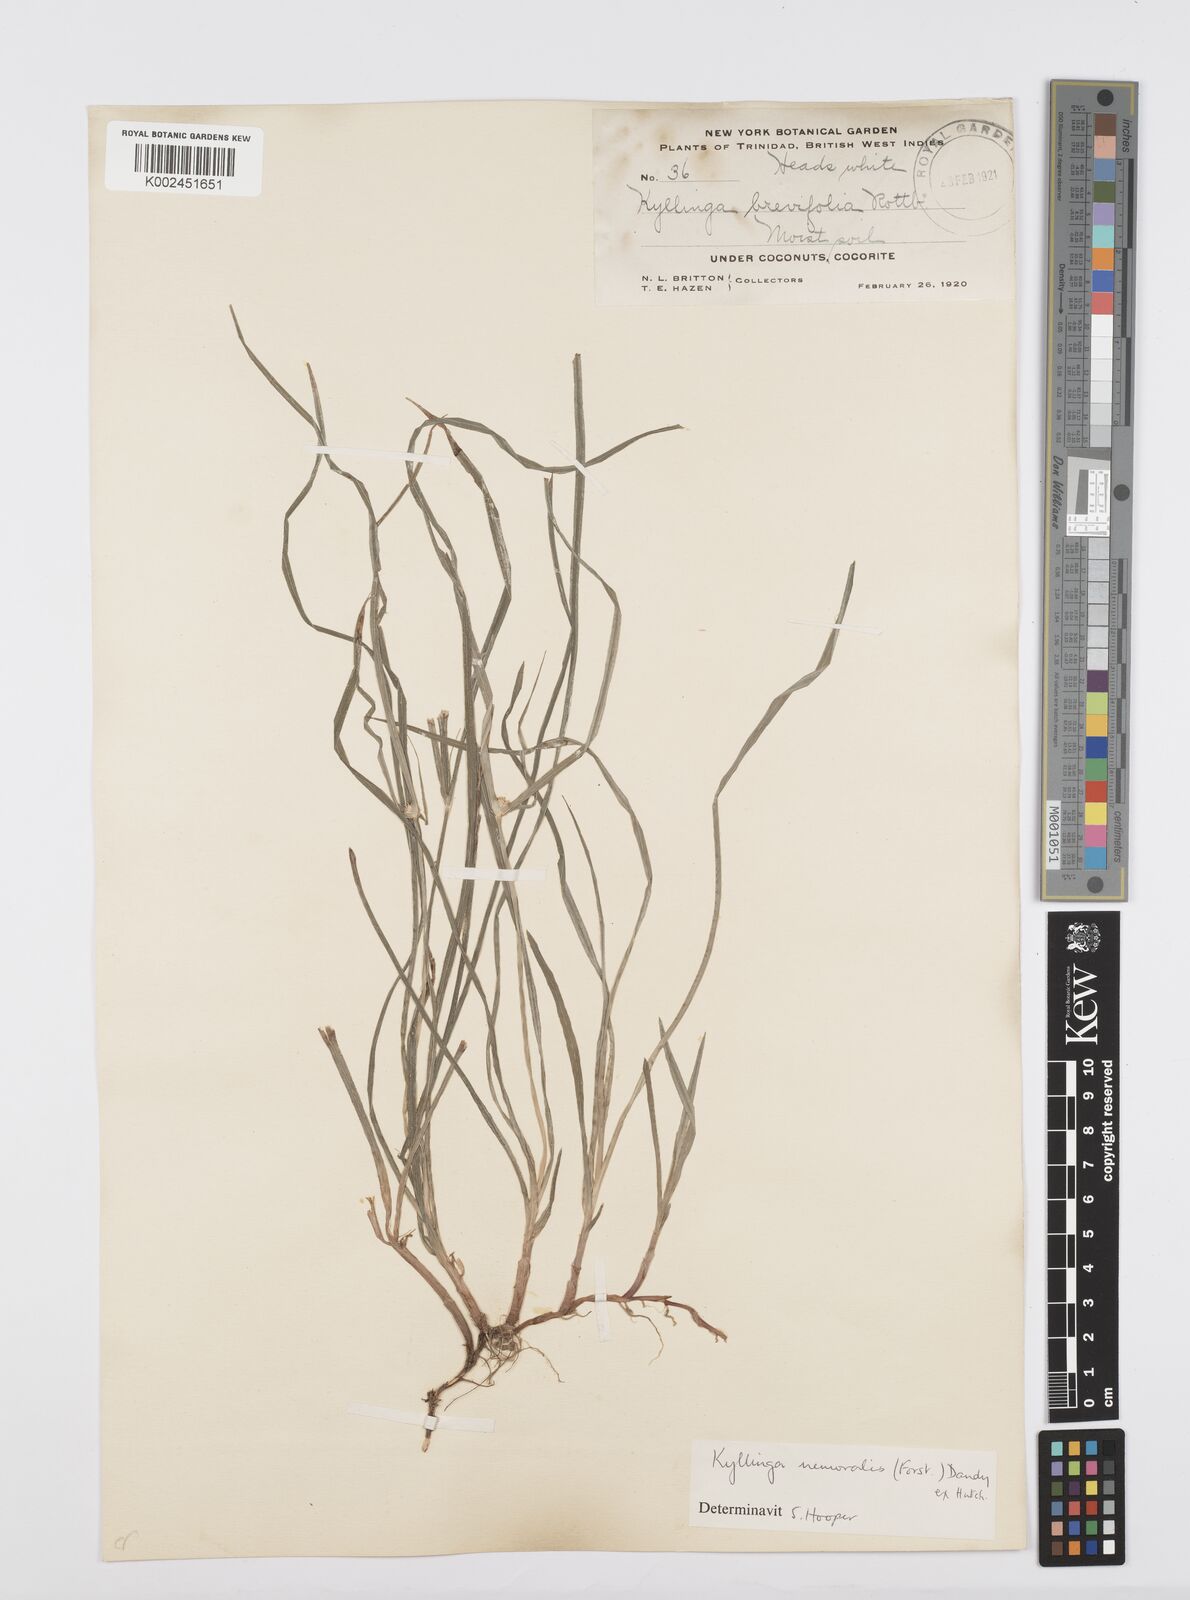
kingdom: Plantae
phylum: Tracheophyta
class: Liliopsida
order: Poales
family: Cyperaceae
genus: Cyperus
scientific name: Cyperus
